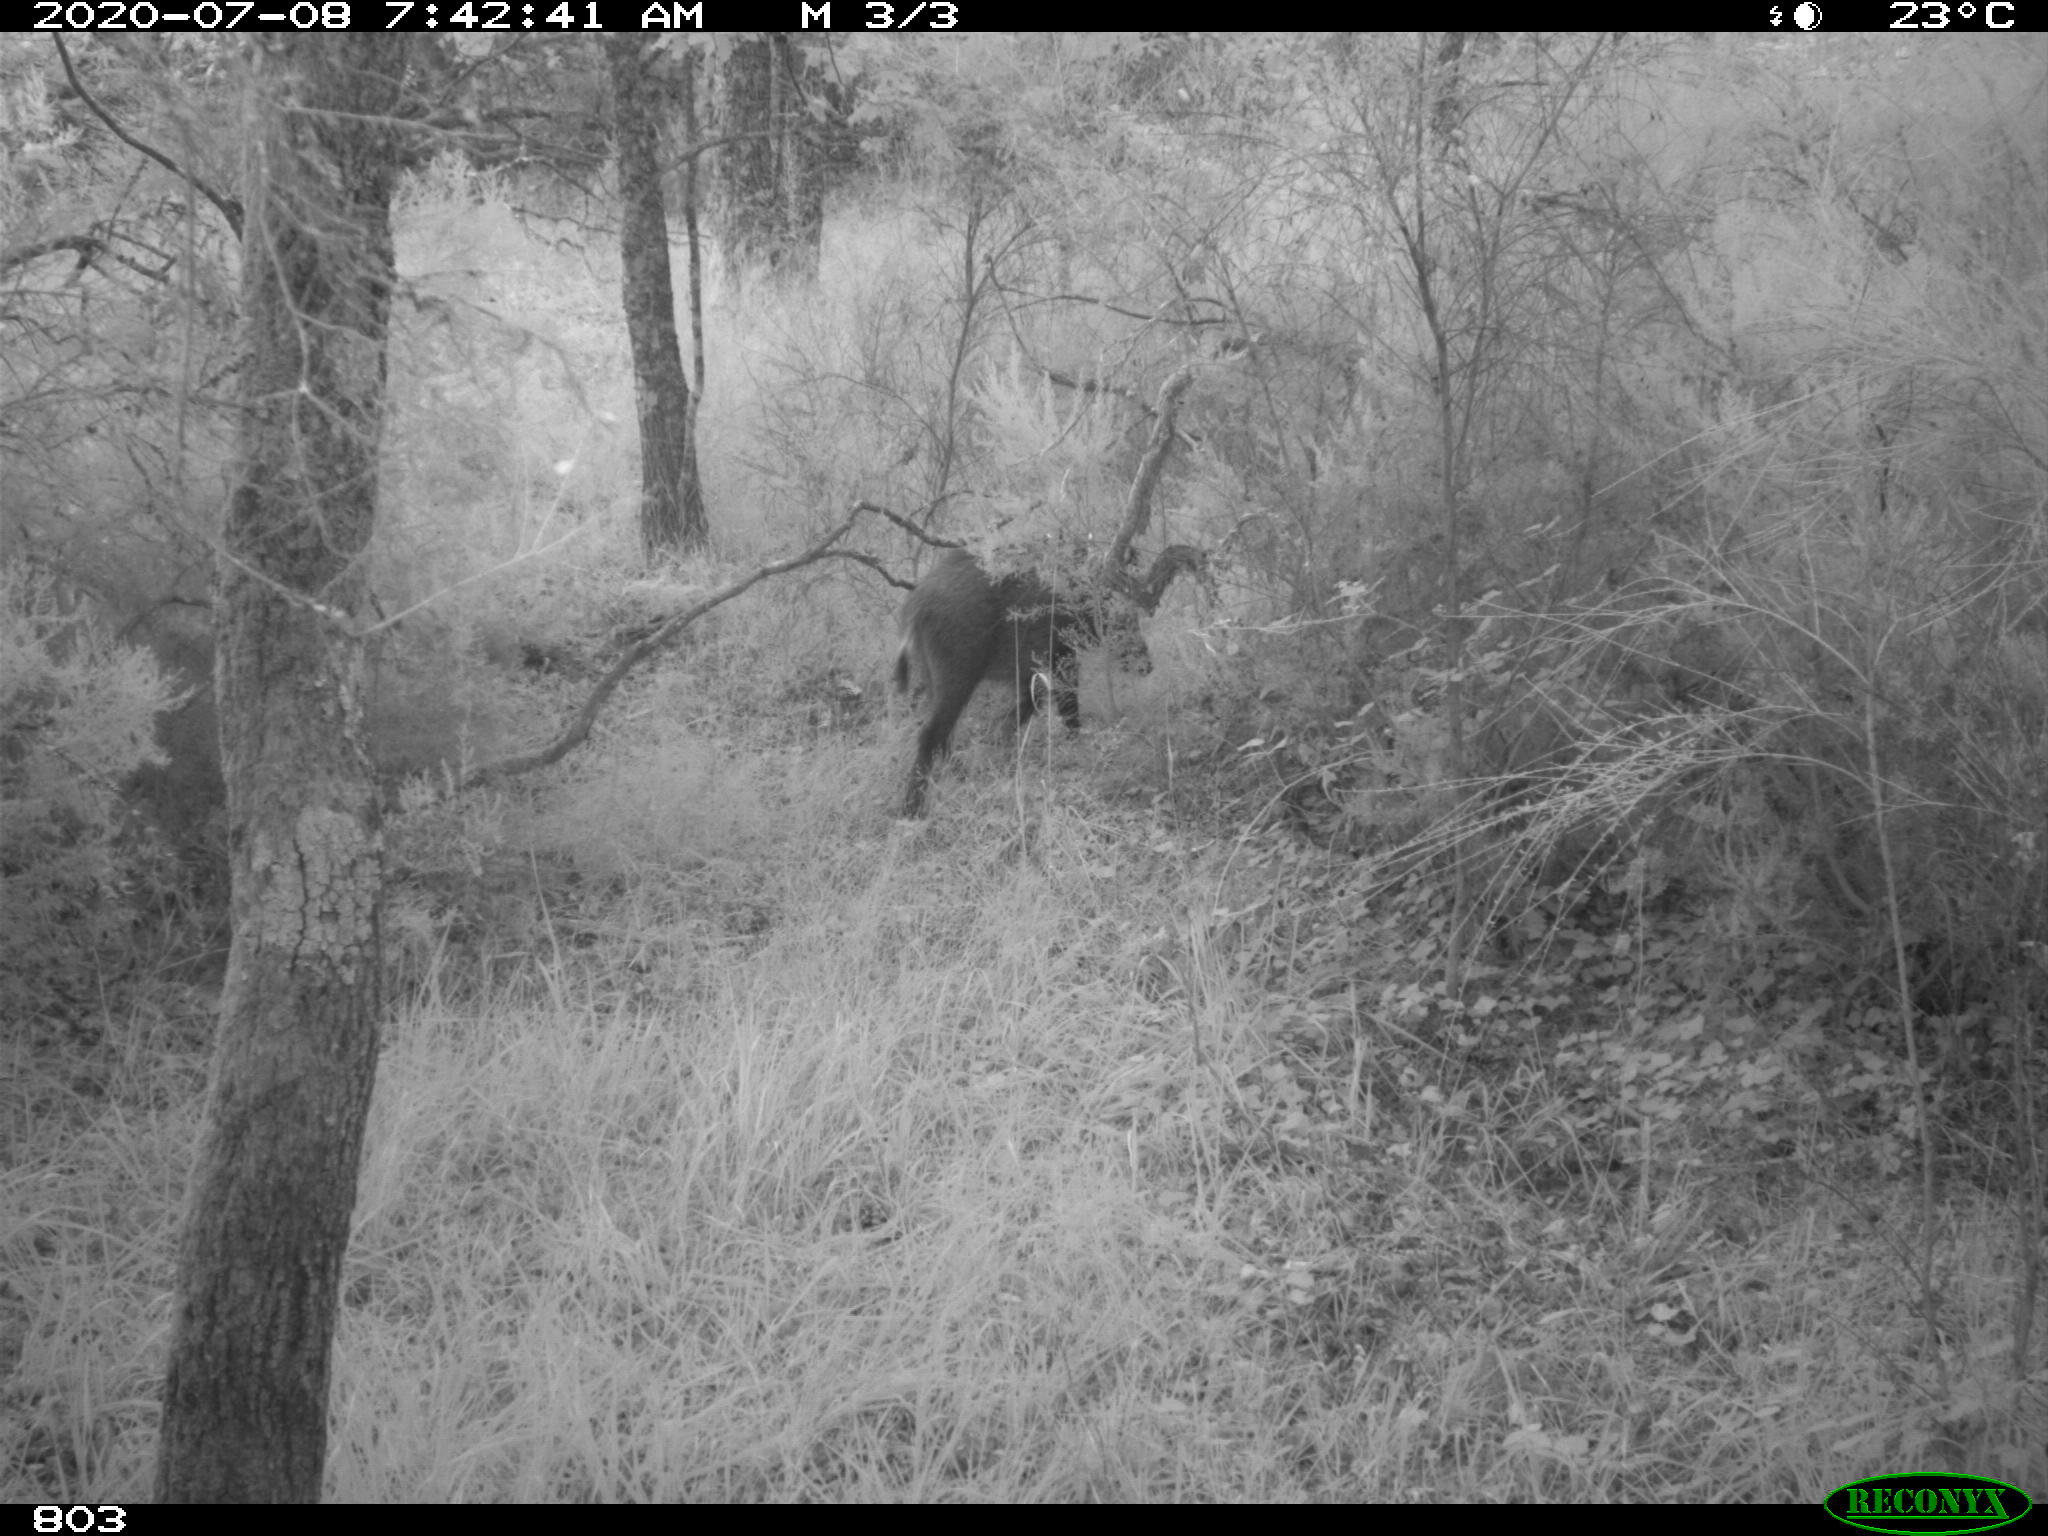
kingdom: Animalia
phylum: Chordata
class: Mammalia
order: Artiodactyla
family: Suidae
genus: Sus
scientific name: Sus scrofa
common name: Wild boar
